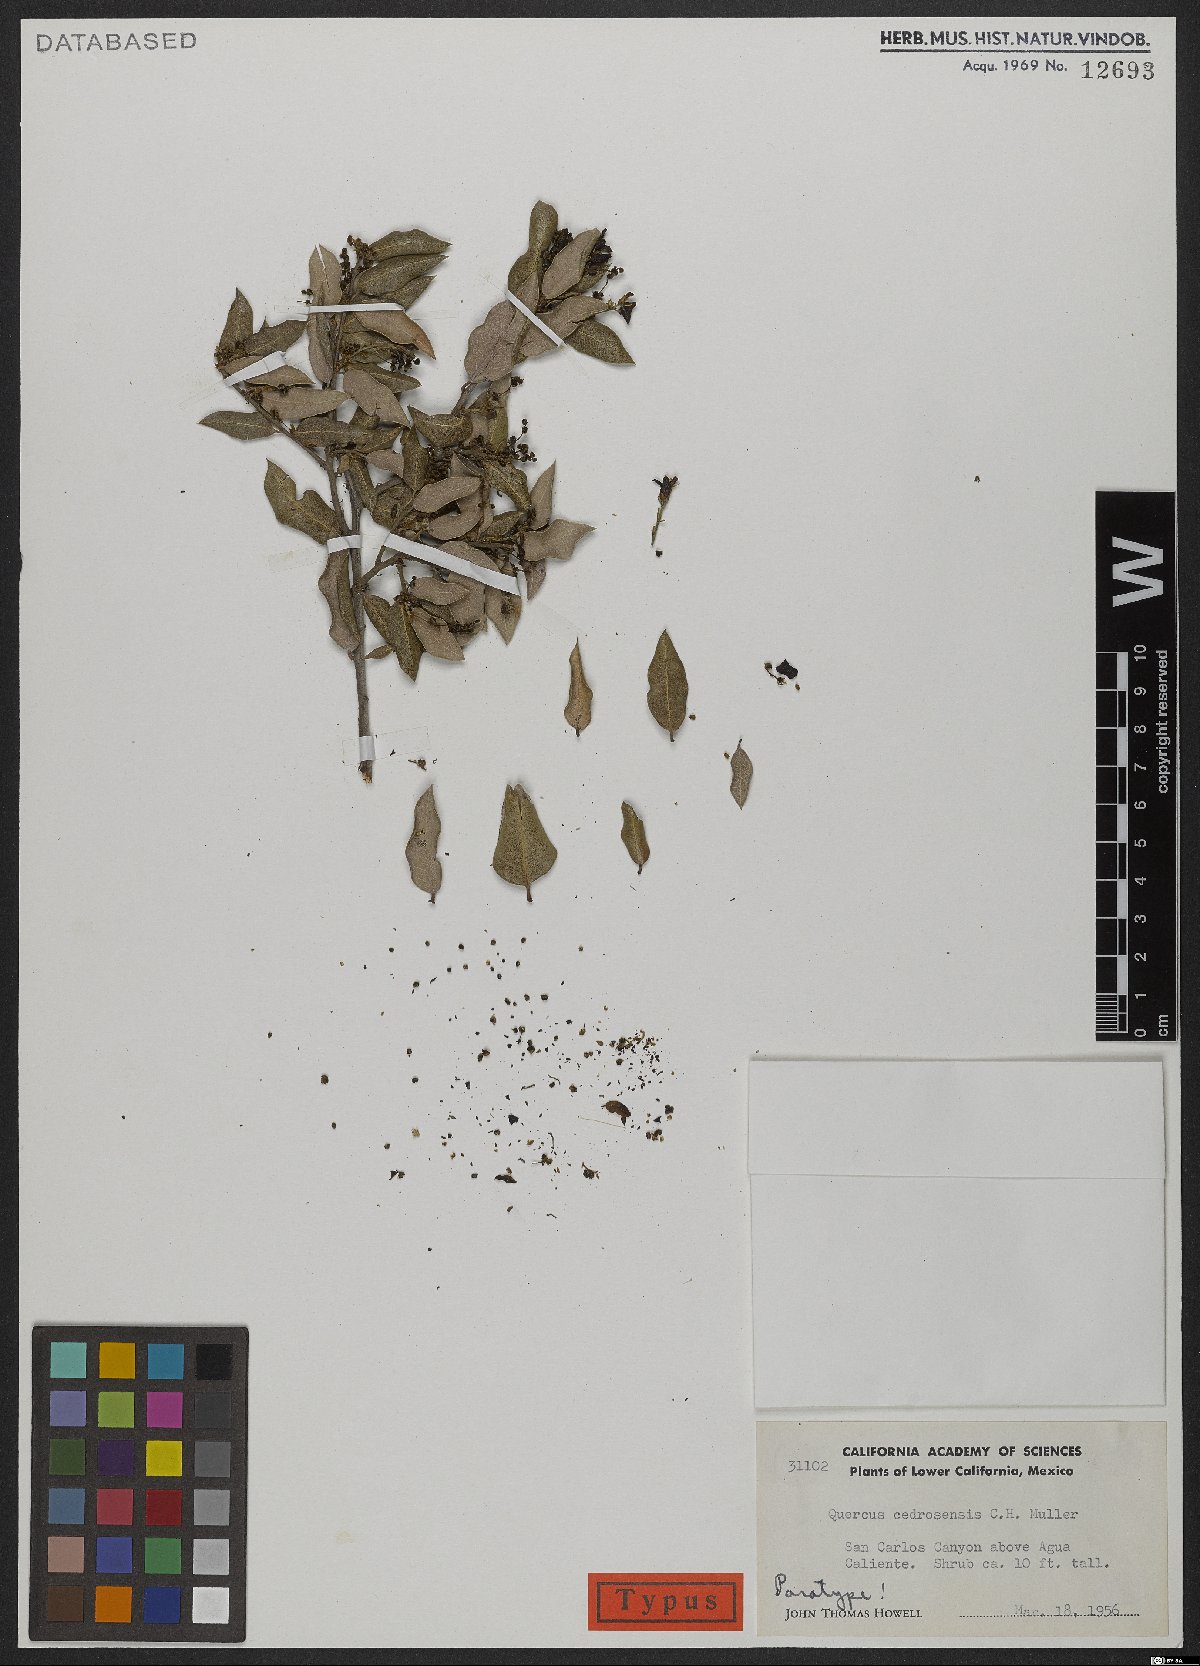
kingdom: Plantae
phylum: Tracheophyta
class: Magnoliopsida
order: Fagales
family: Fagaceae
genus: Quercus
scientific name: Quercus cedrosensis
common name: Cedros island oak
